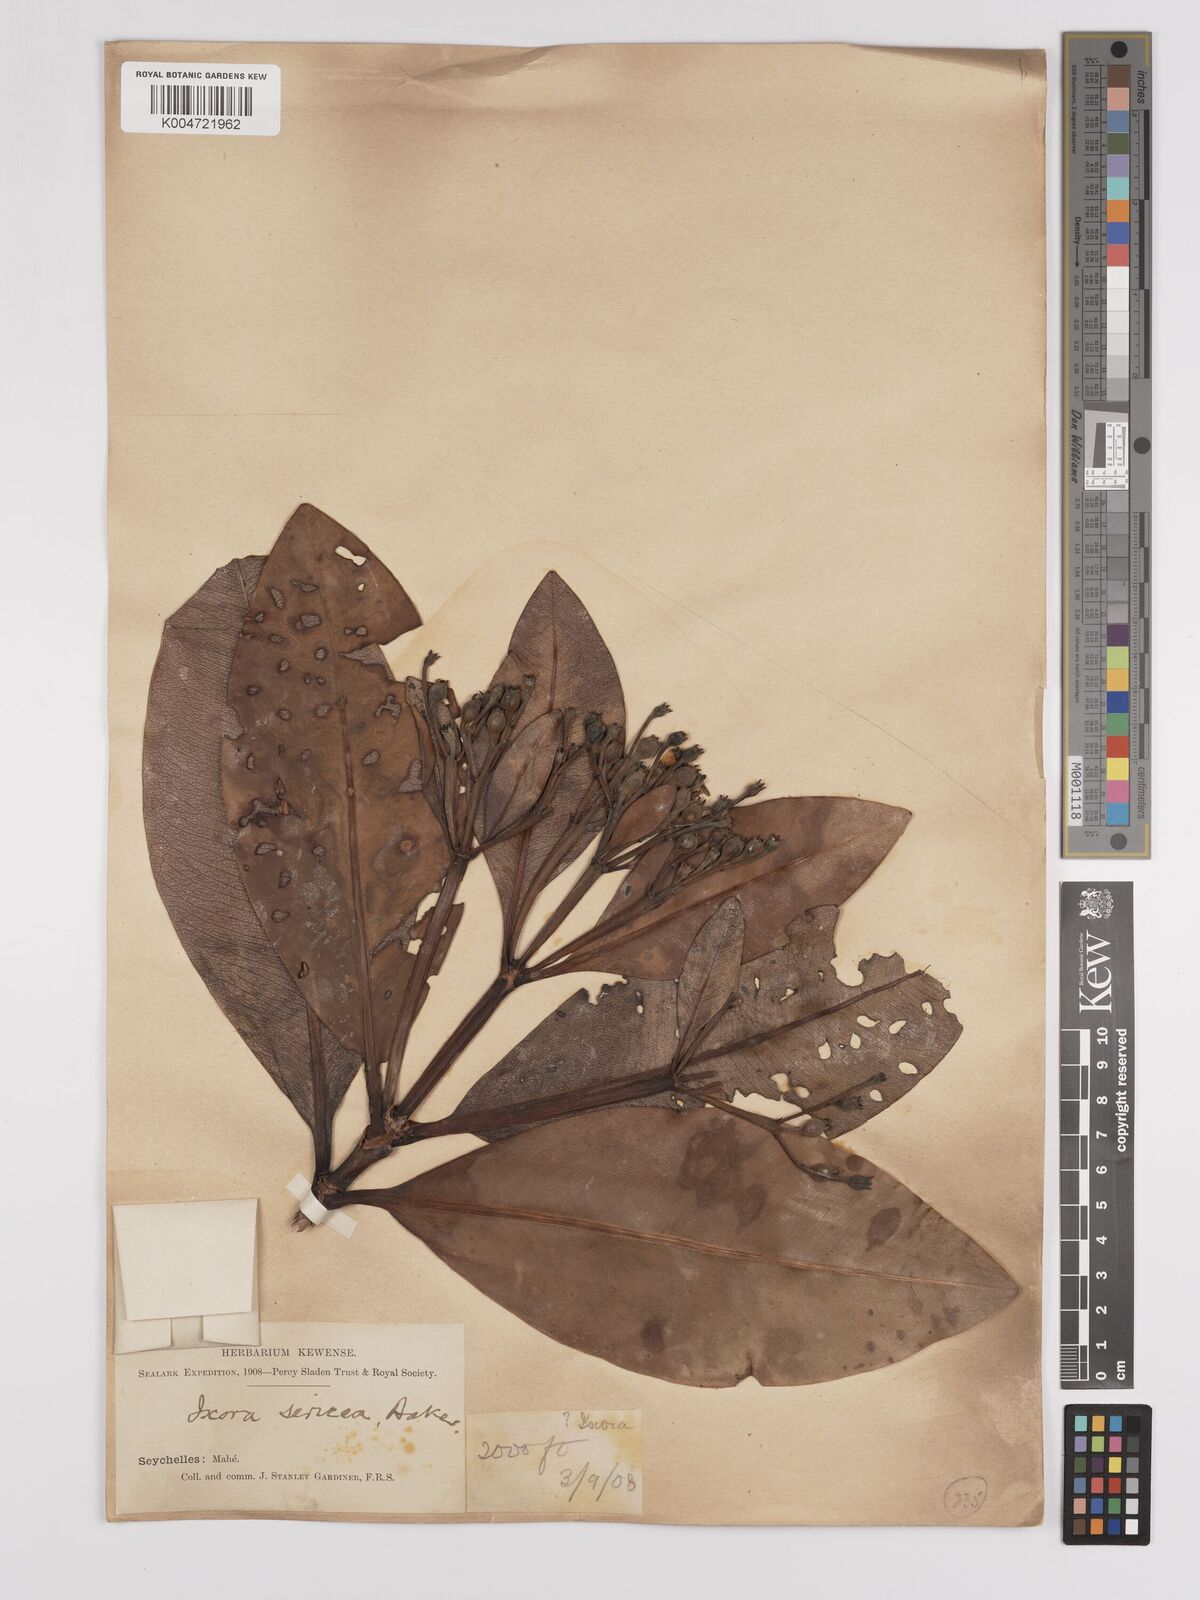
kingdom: Plantae
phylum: Tracheophyta
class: Magnoliopsida
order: Gentianales
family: Rubiaceae
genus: Glionnetia
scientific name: Glionnetia sericea
